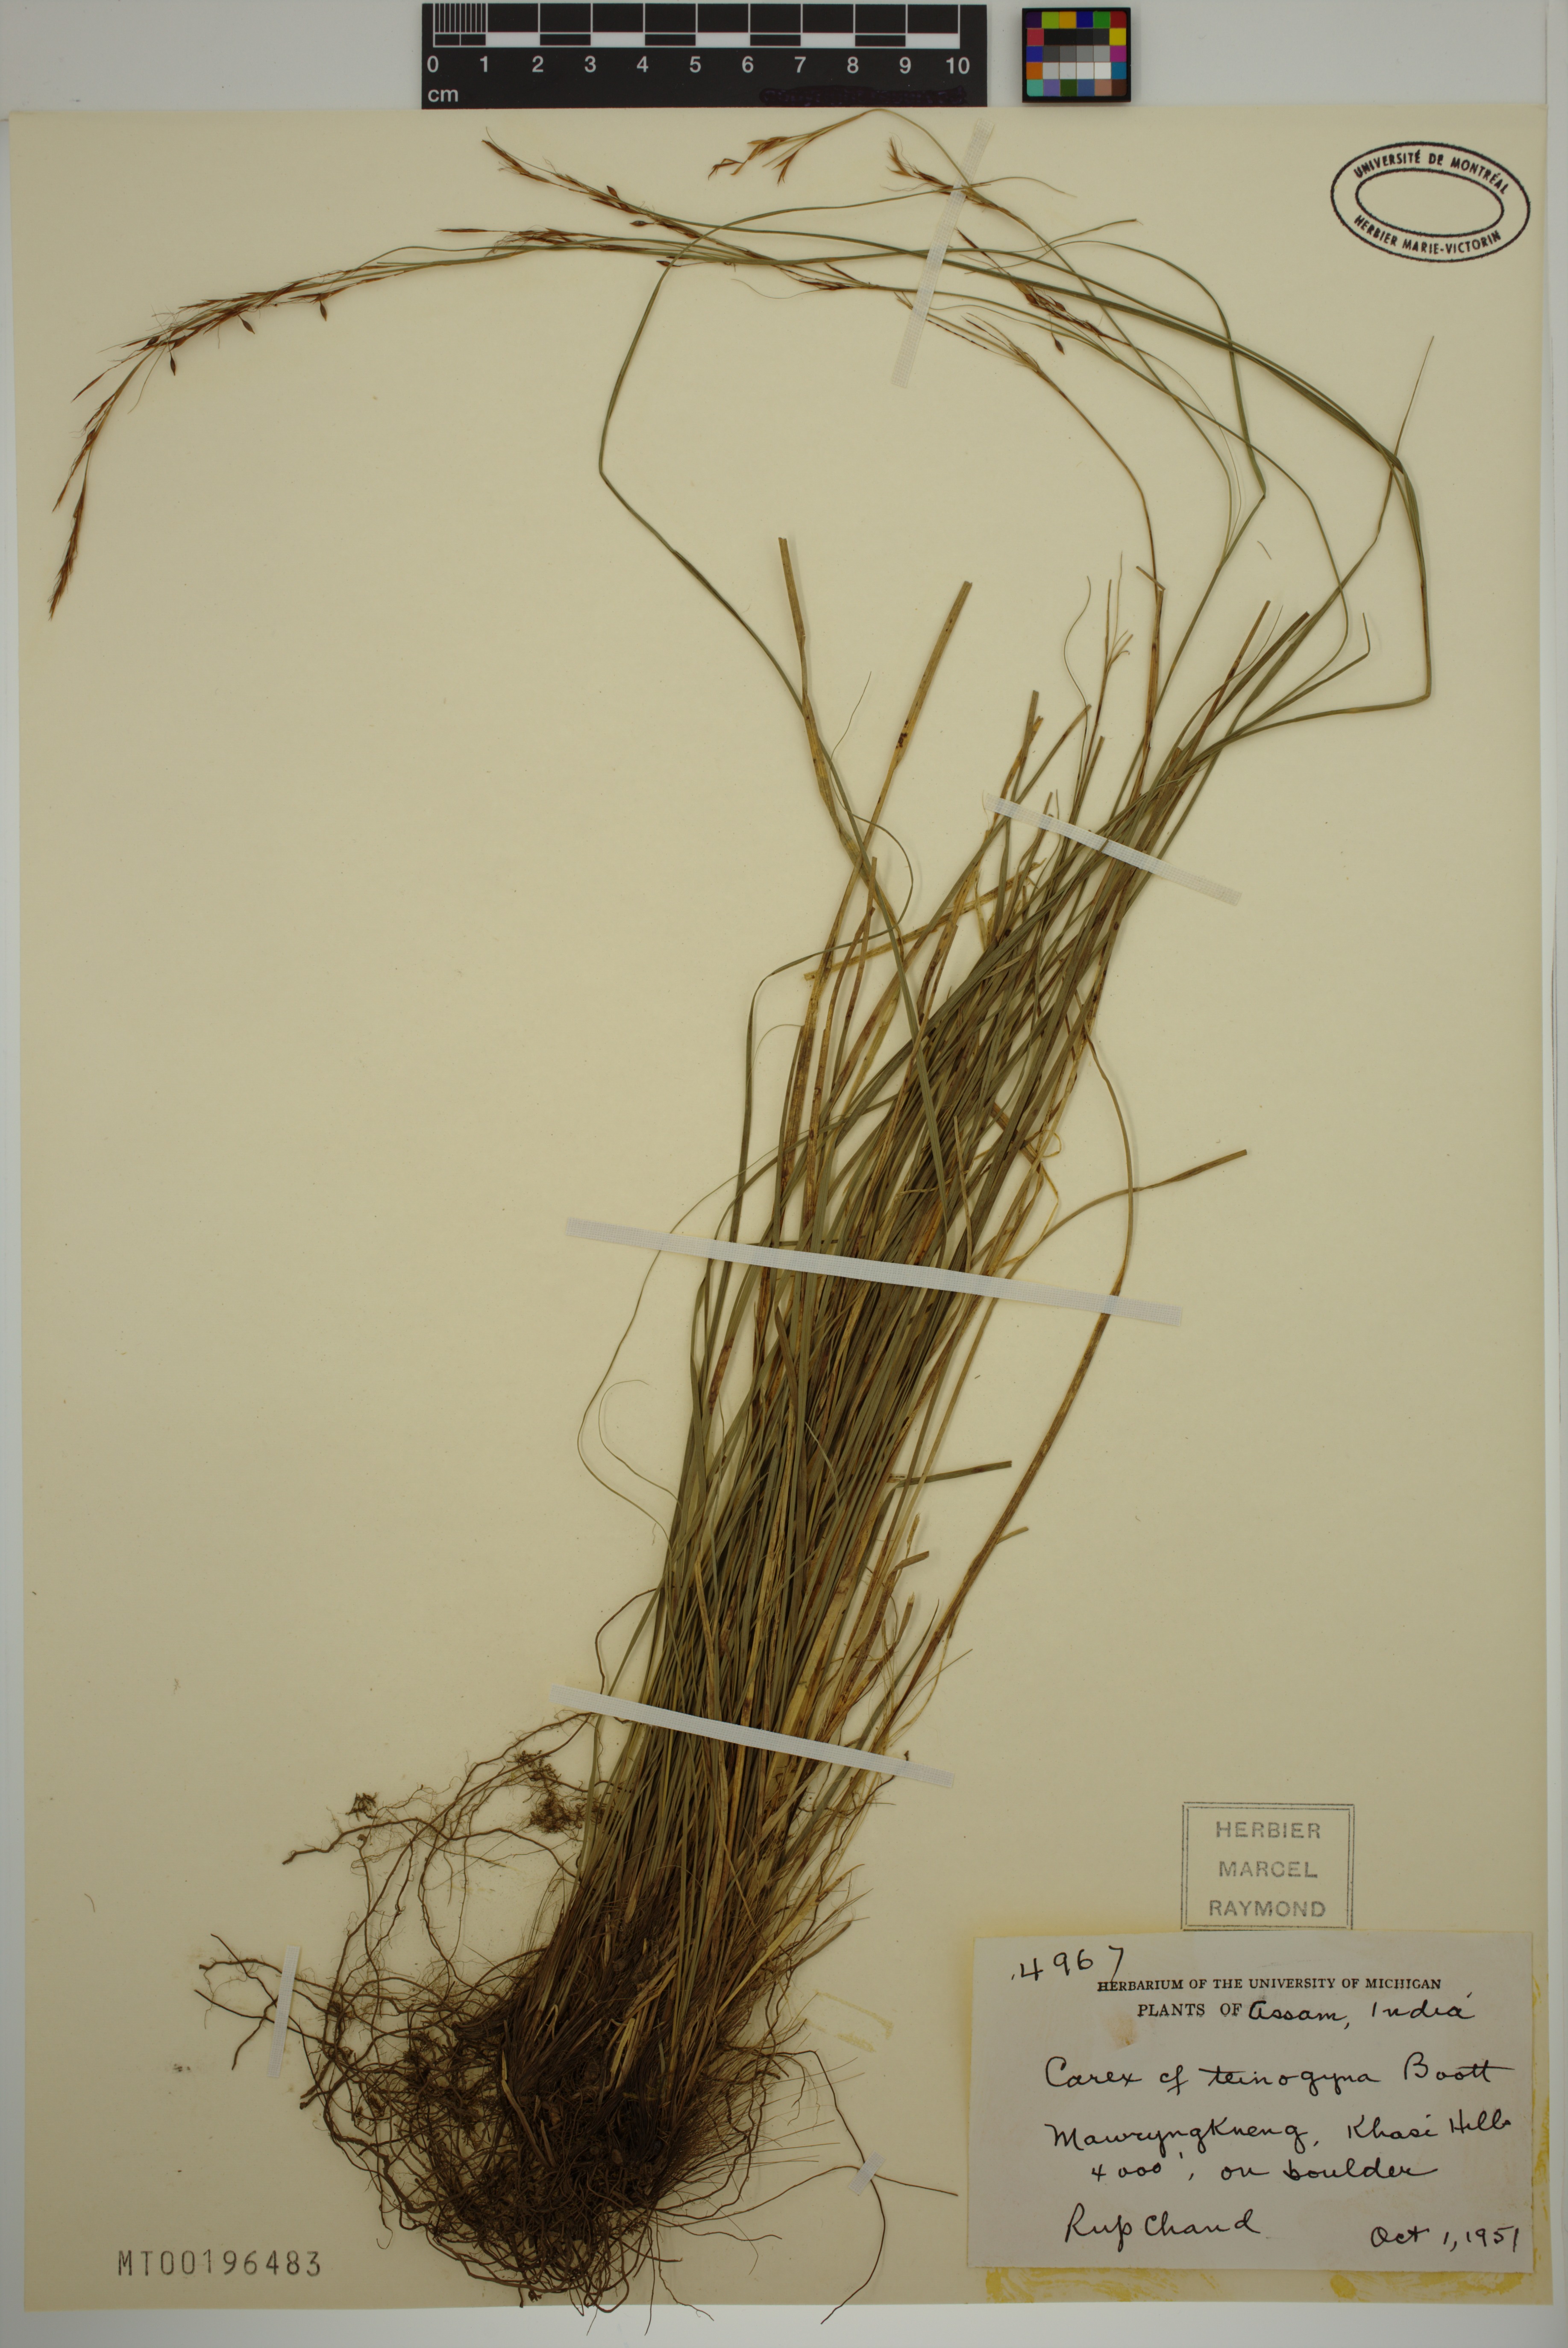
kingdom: Plantae
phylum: Tracheophyta
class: Liliopsida
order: Poales
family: Cyperaceae
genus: Carex
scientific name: Carex teinogyna
